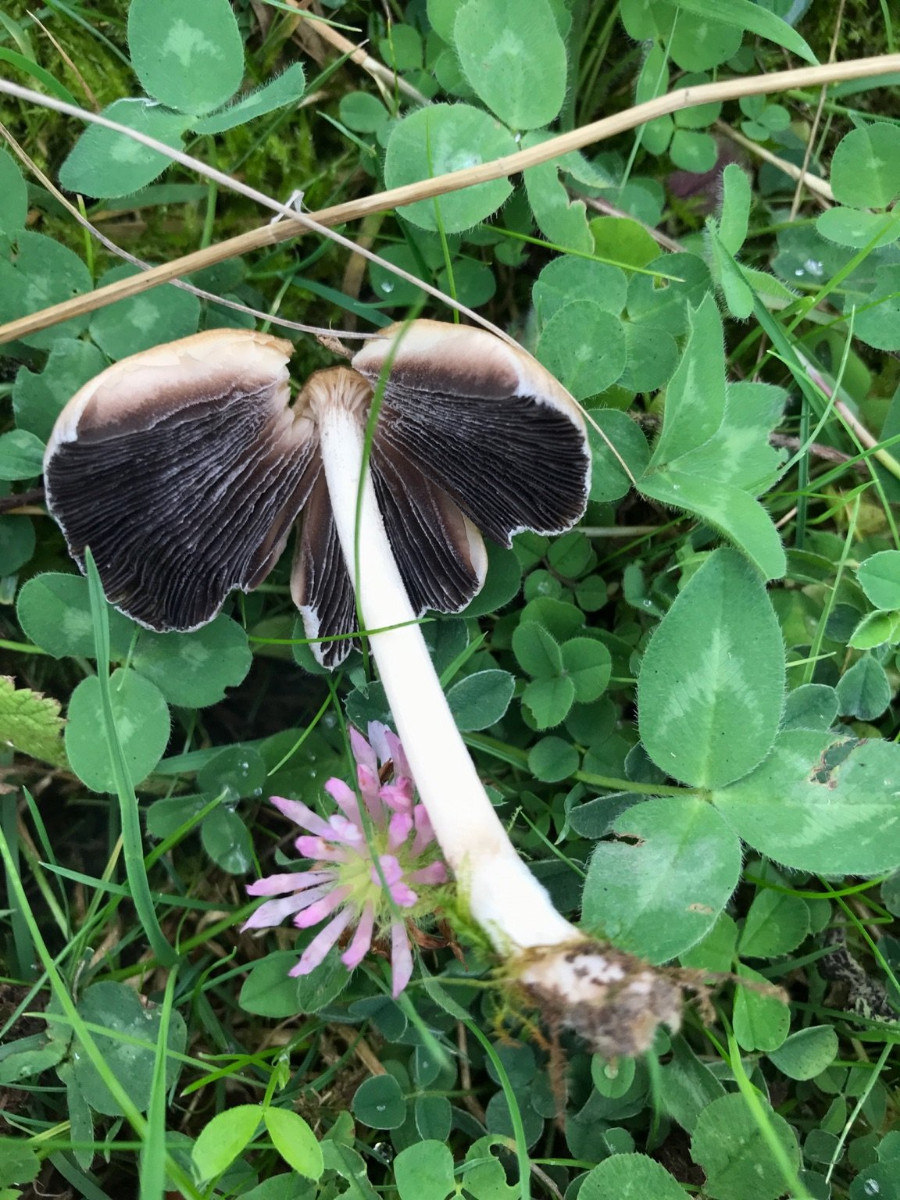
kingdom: Fungi
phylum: Basidiomycota
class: Agaricomycetes
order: Agaricales
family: Psathyrellaceae
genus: Coprinellus
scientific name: Coprinellus micaceus
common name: glimmer-blækhat
